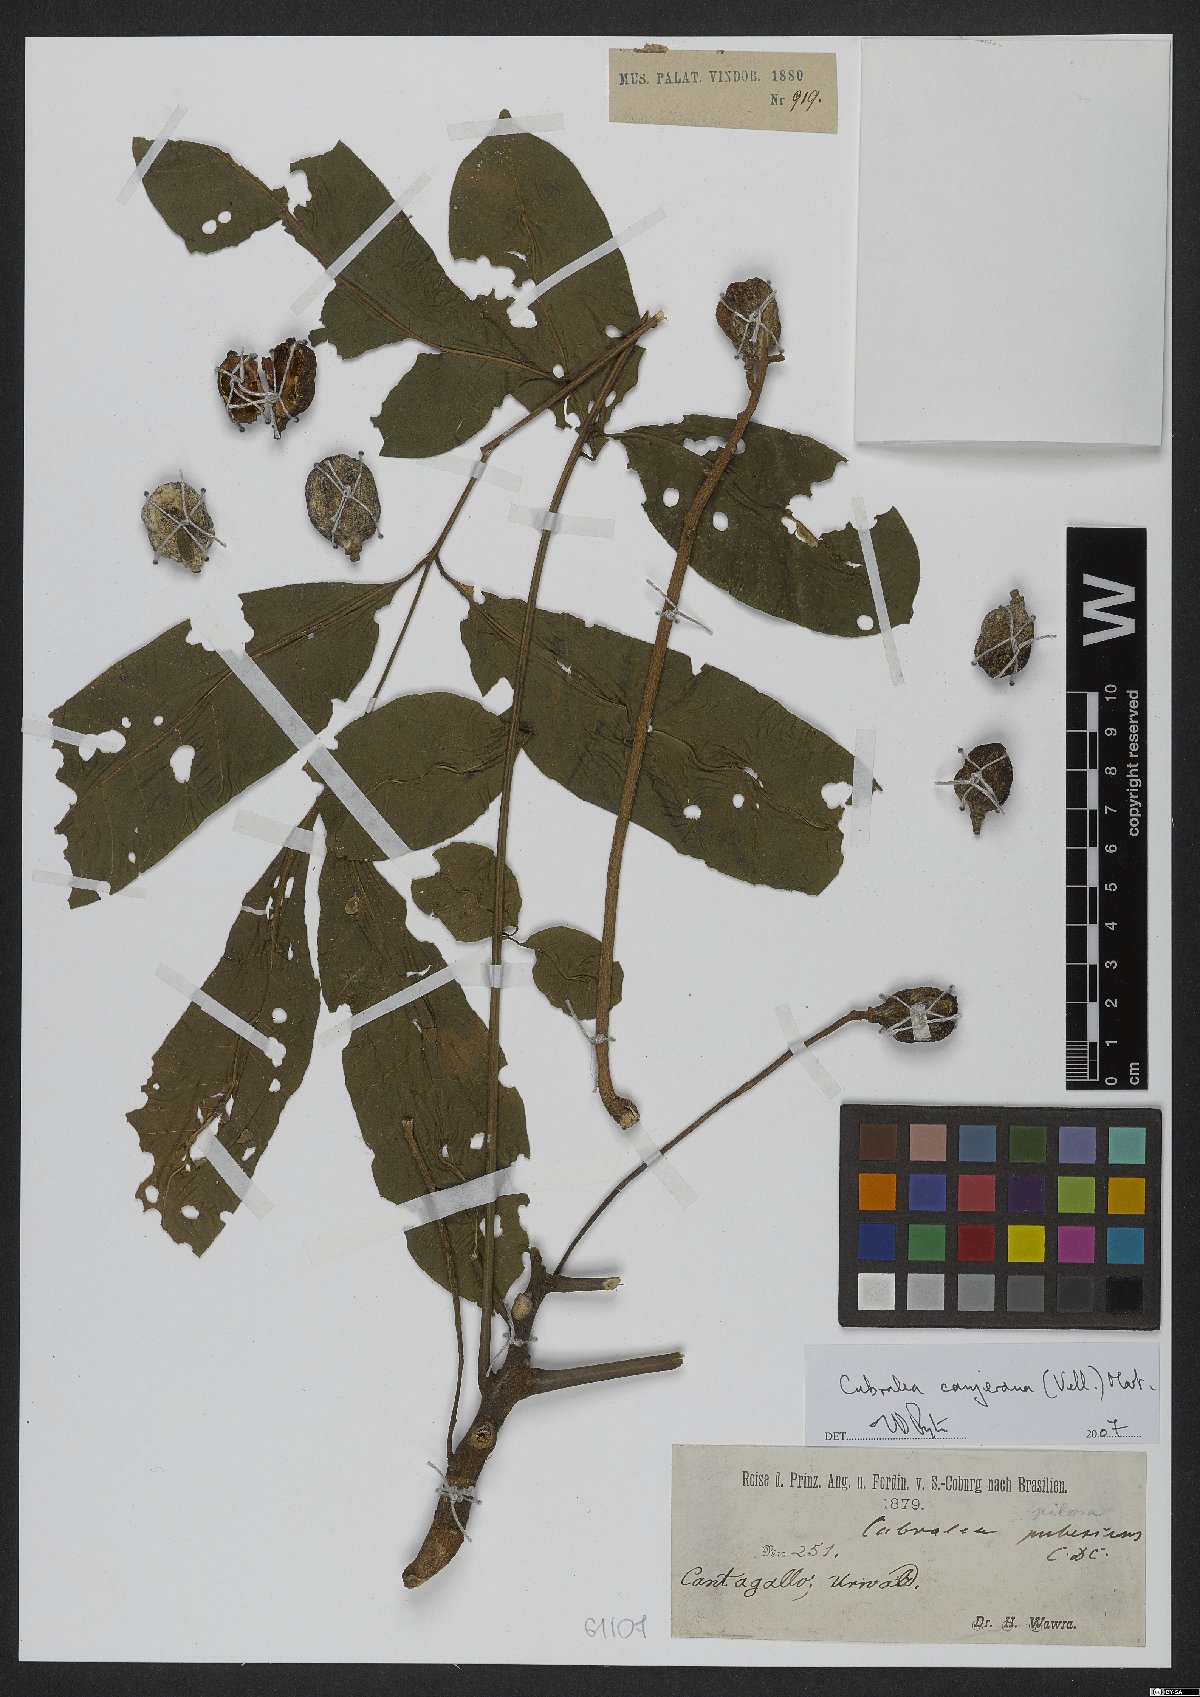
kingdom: Plantae
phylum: Tracheophyta
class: Magnoliopsida
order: Sapindales
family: Meliaceae
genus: Cabralea
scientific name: Cabralea canjerana
